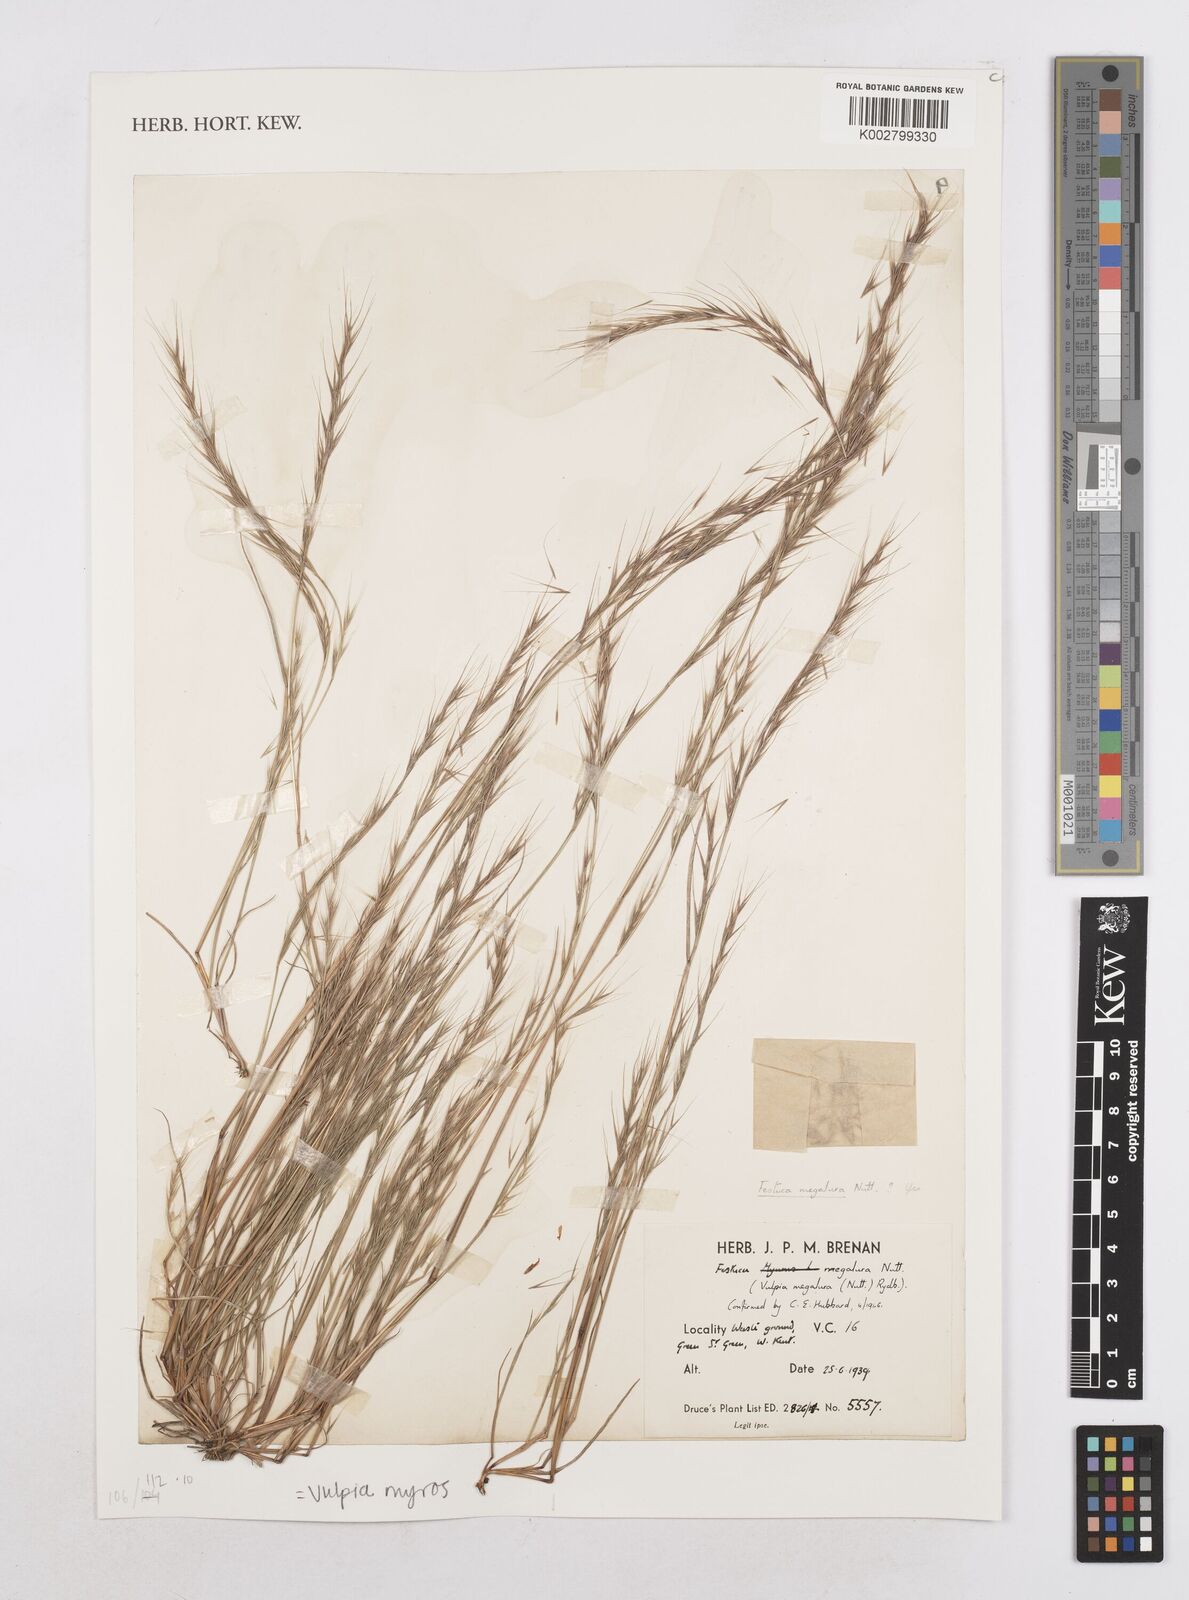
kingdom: Plantae
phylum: Tracheophyta
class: Liliopsida
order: Poales
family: Poaceae
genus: Festuca
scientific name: Festuca myuros
